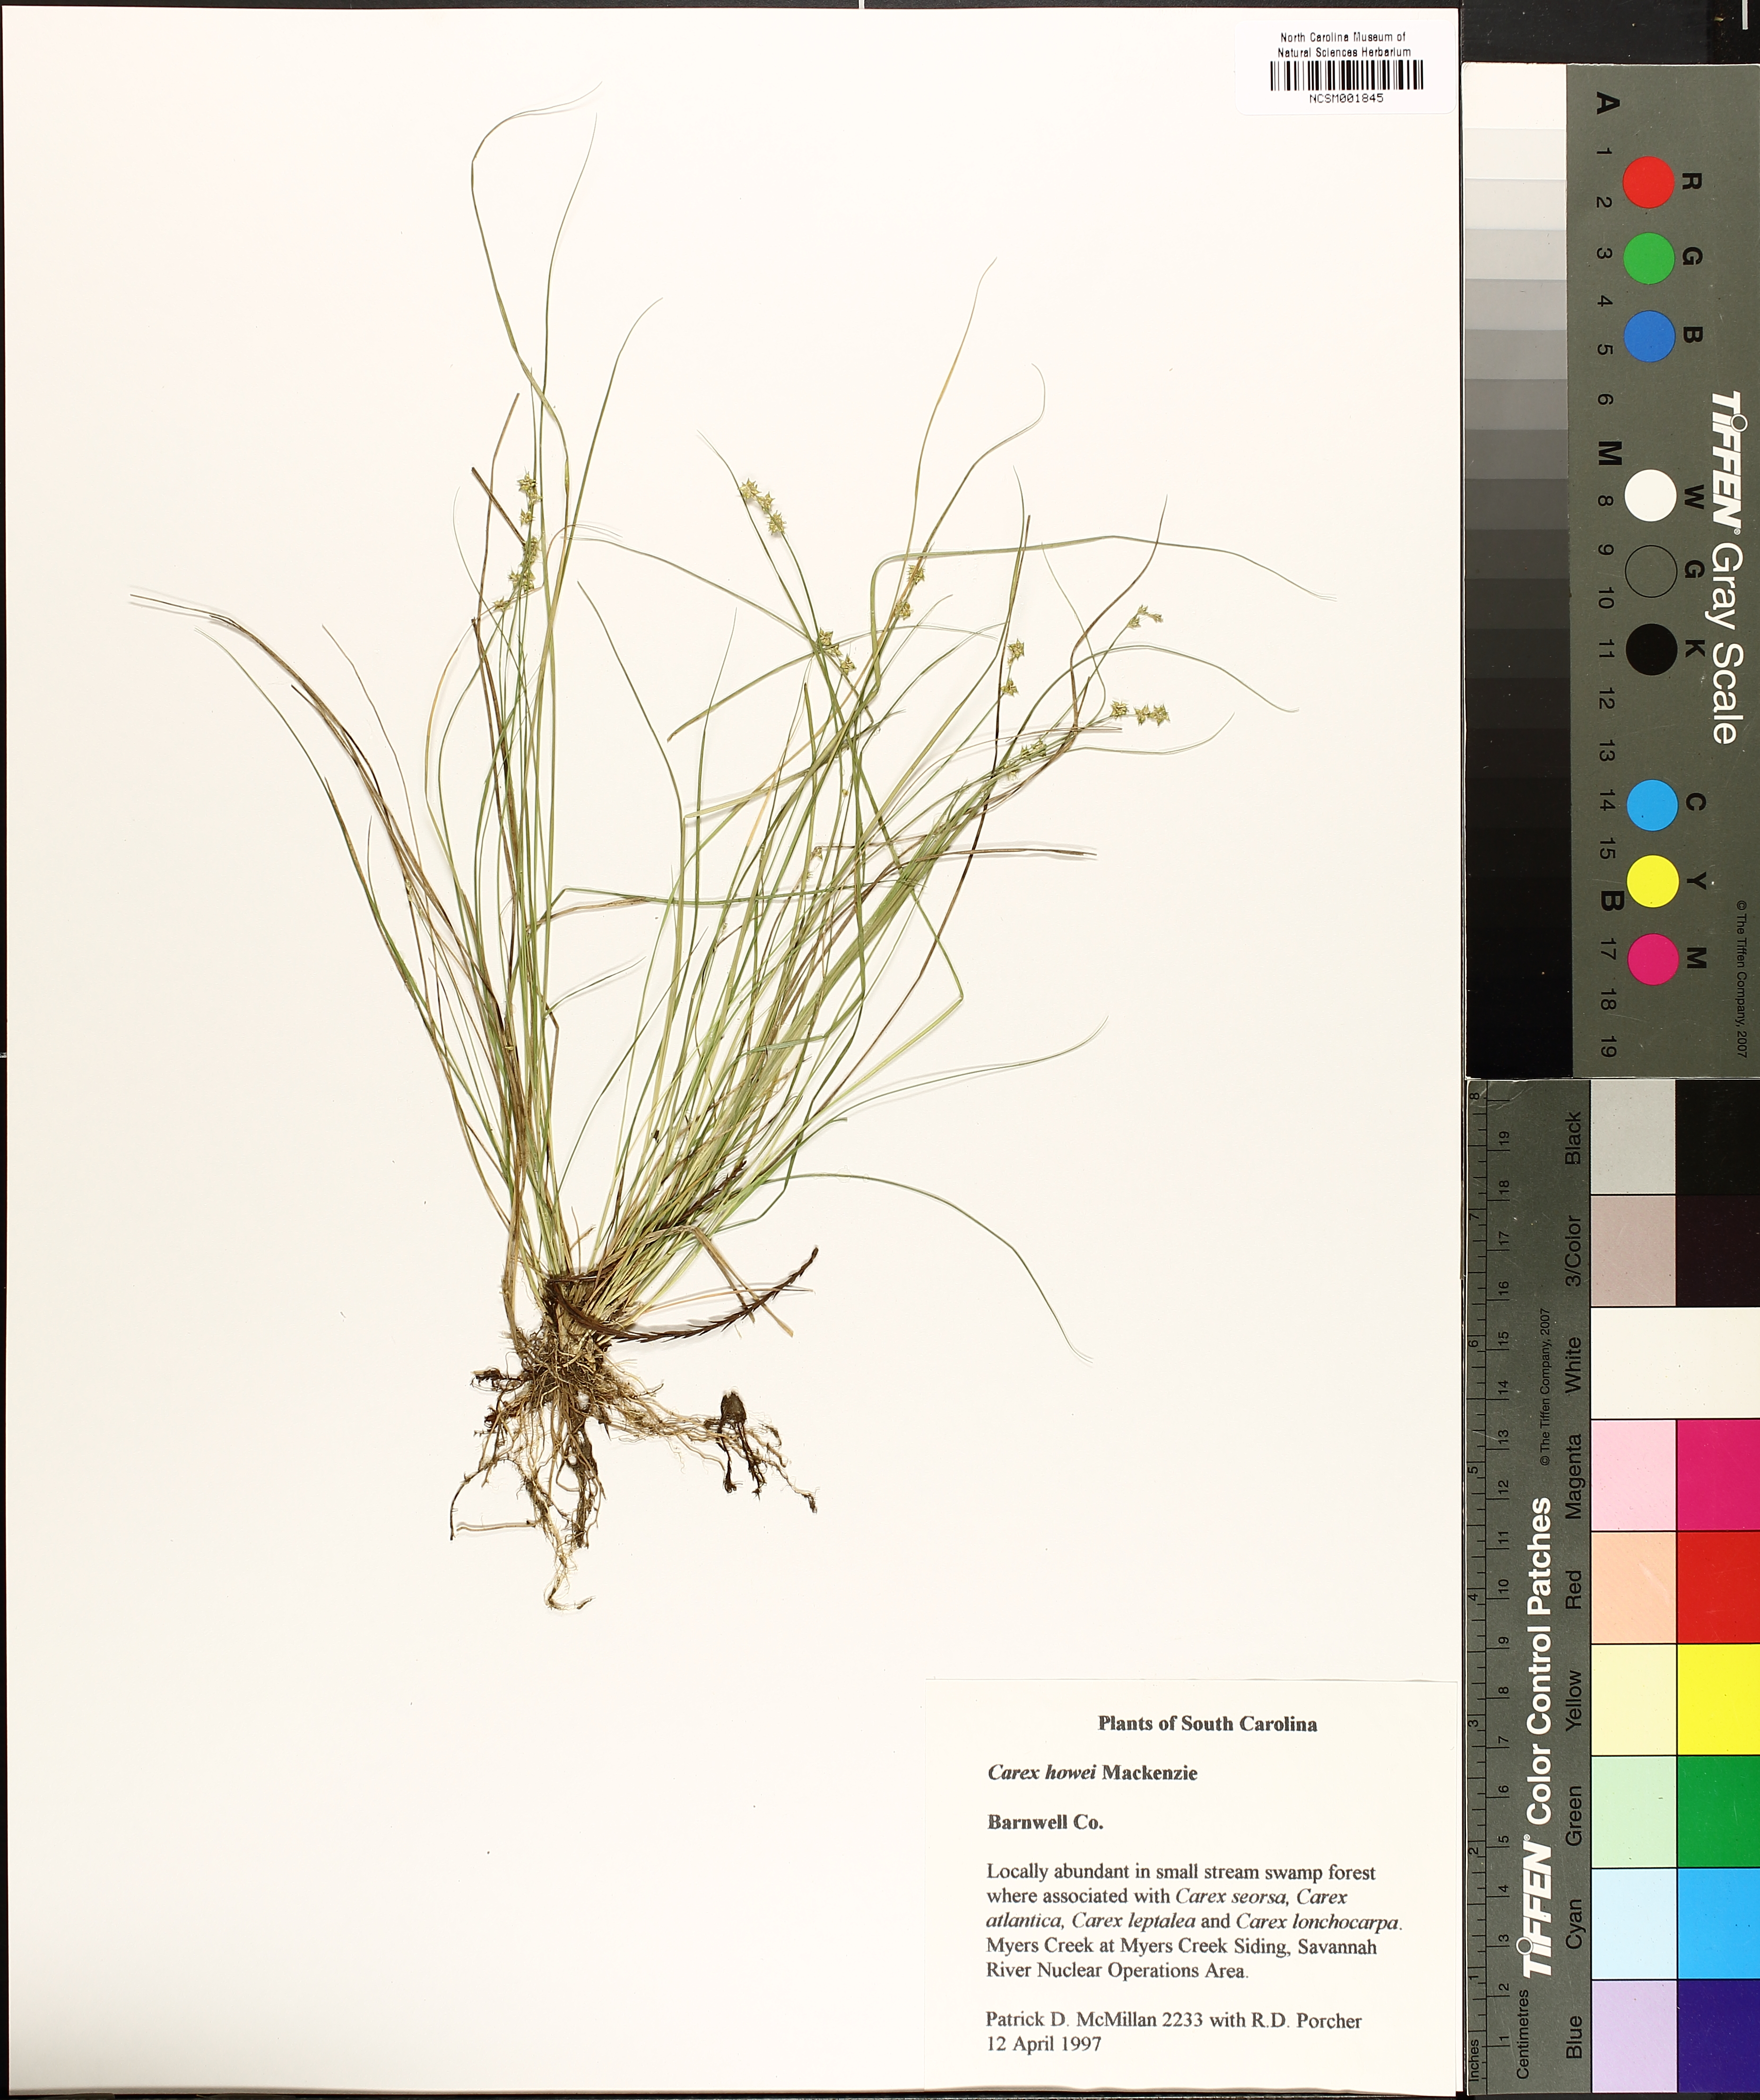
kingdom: Plantae
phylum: Tracheophyta
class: Liliopsida
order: Poales
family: Cyperaceae
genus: Carex
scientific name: Carex atlantica
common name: Atlantic sedge
